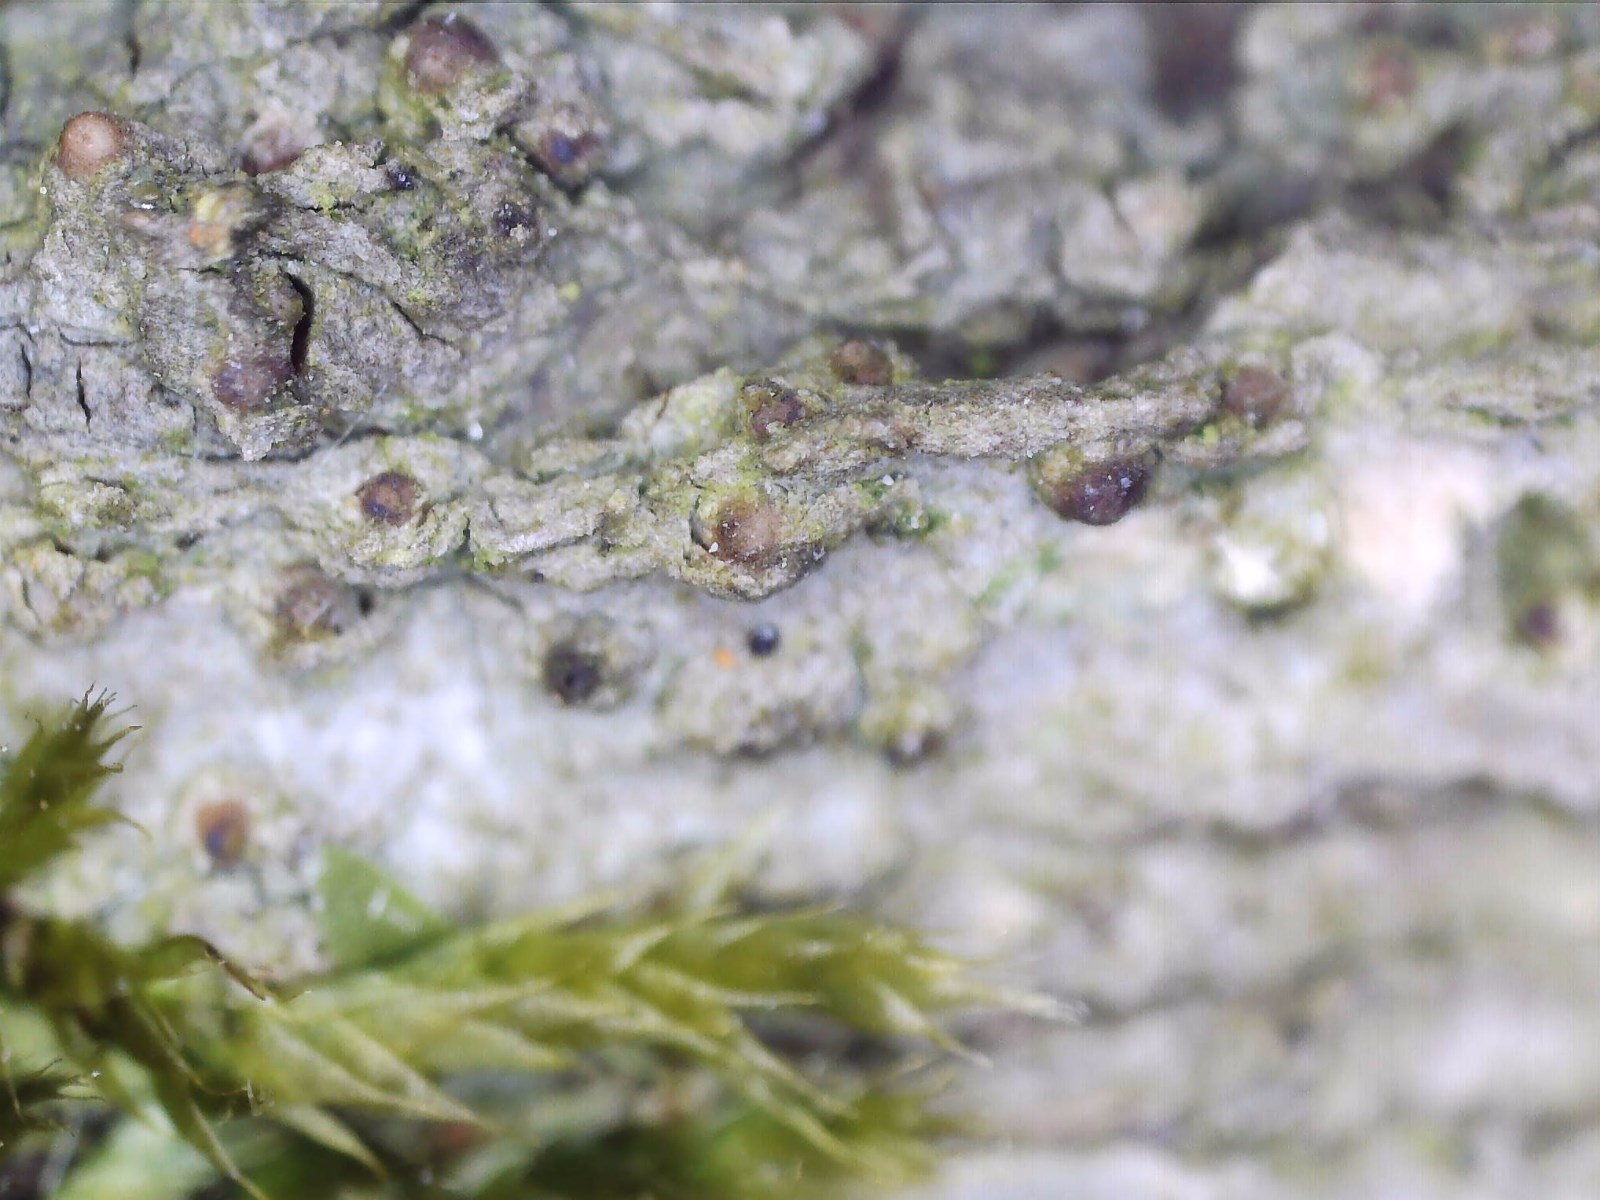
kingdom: Fungi
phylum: Ascomycota
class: Lecanoromycetes
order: Ostropales
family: Stictidaceae
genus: Thelopsis
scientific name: Thelopsis rubella
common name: brun thelopsis
